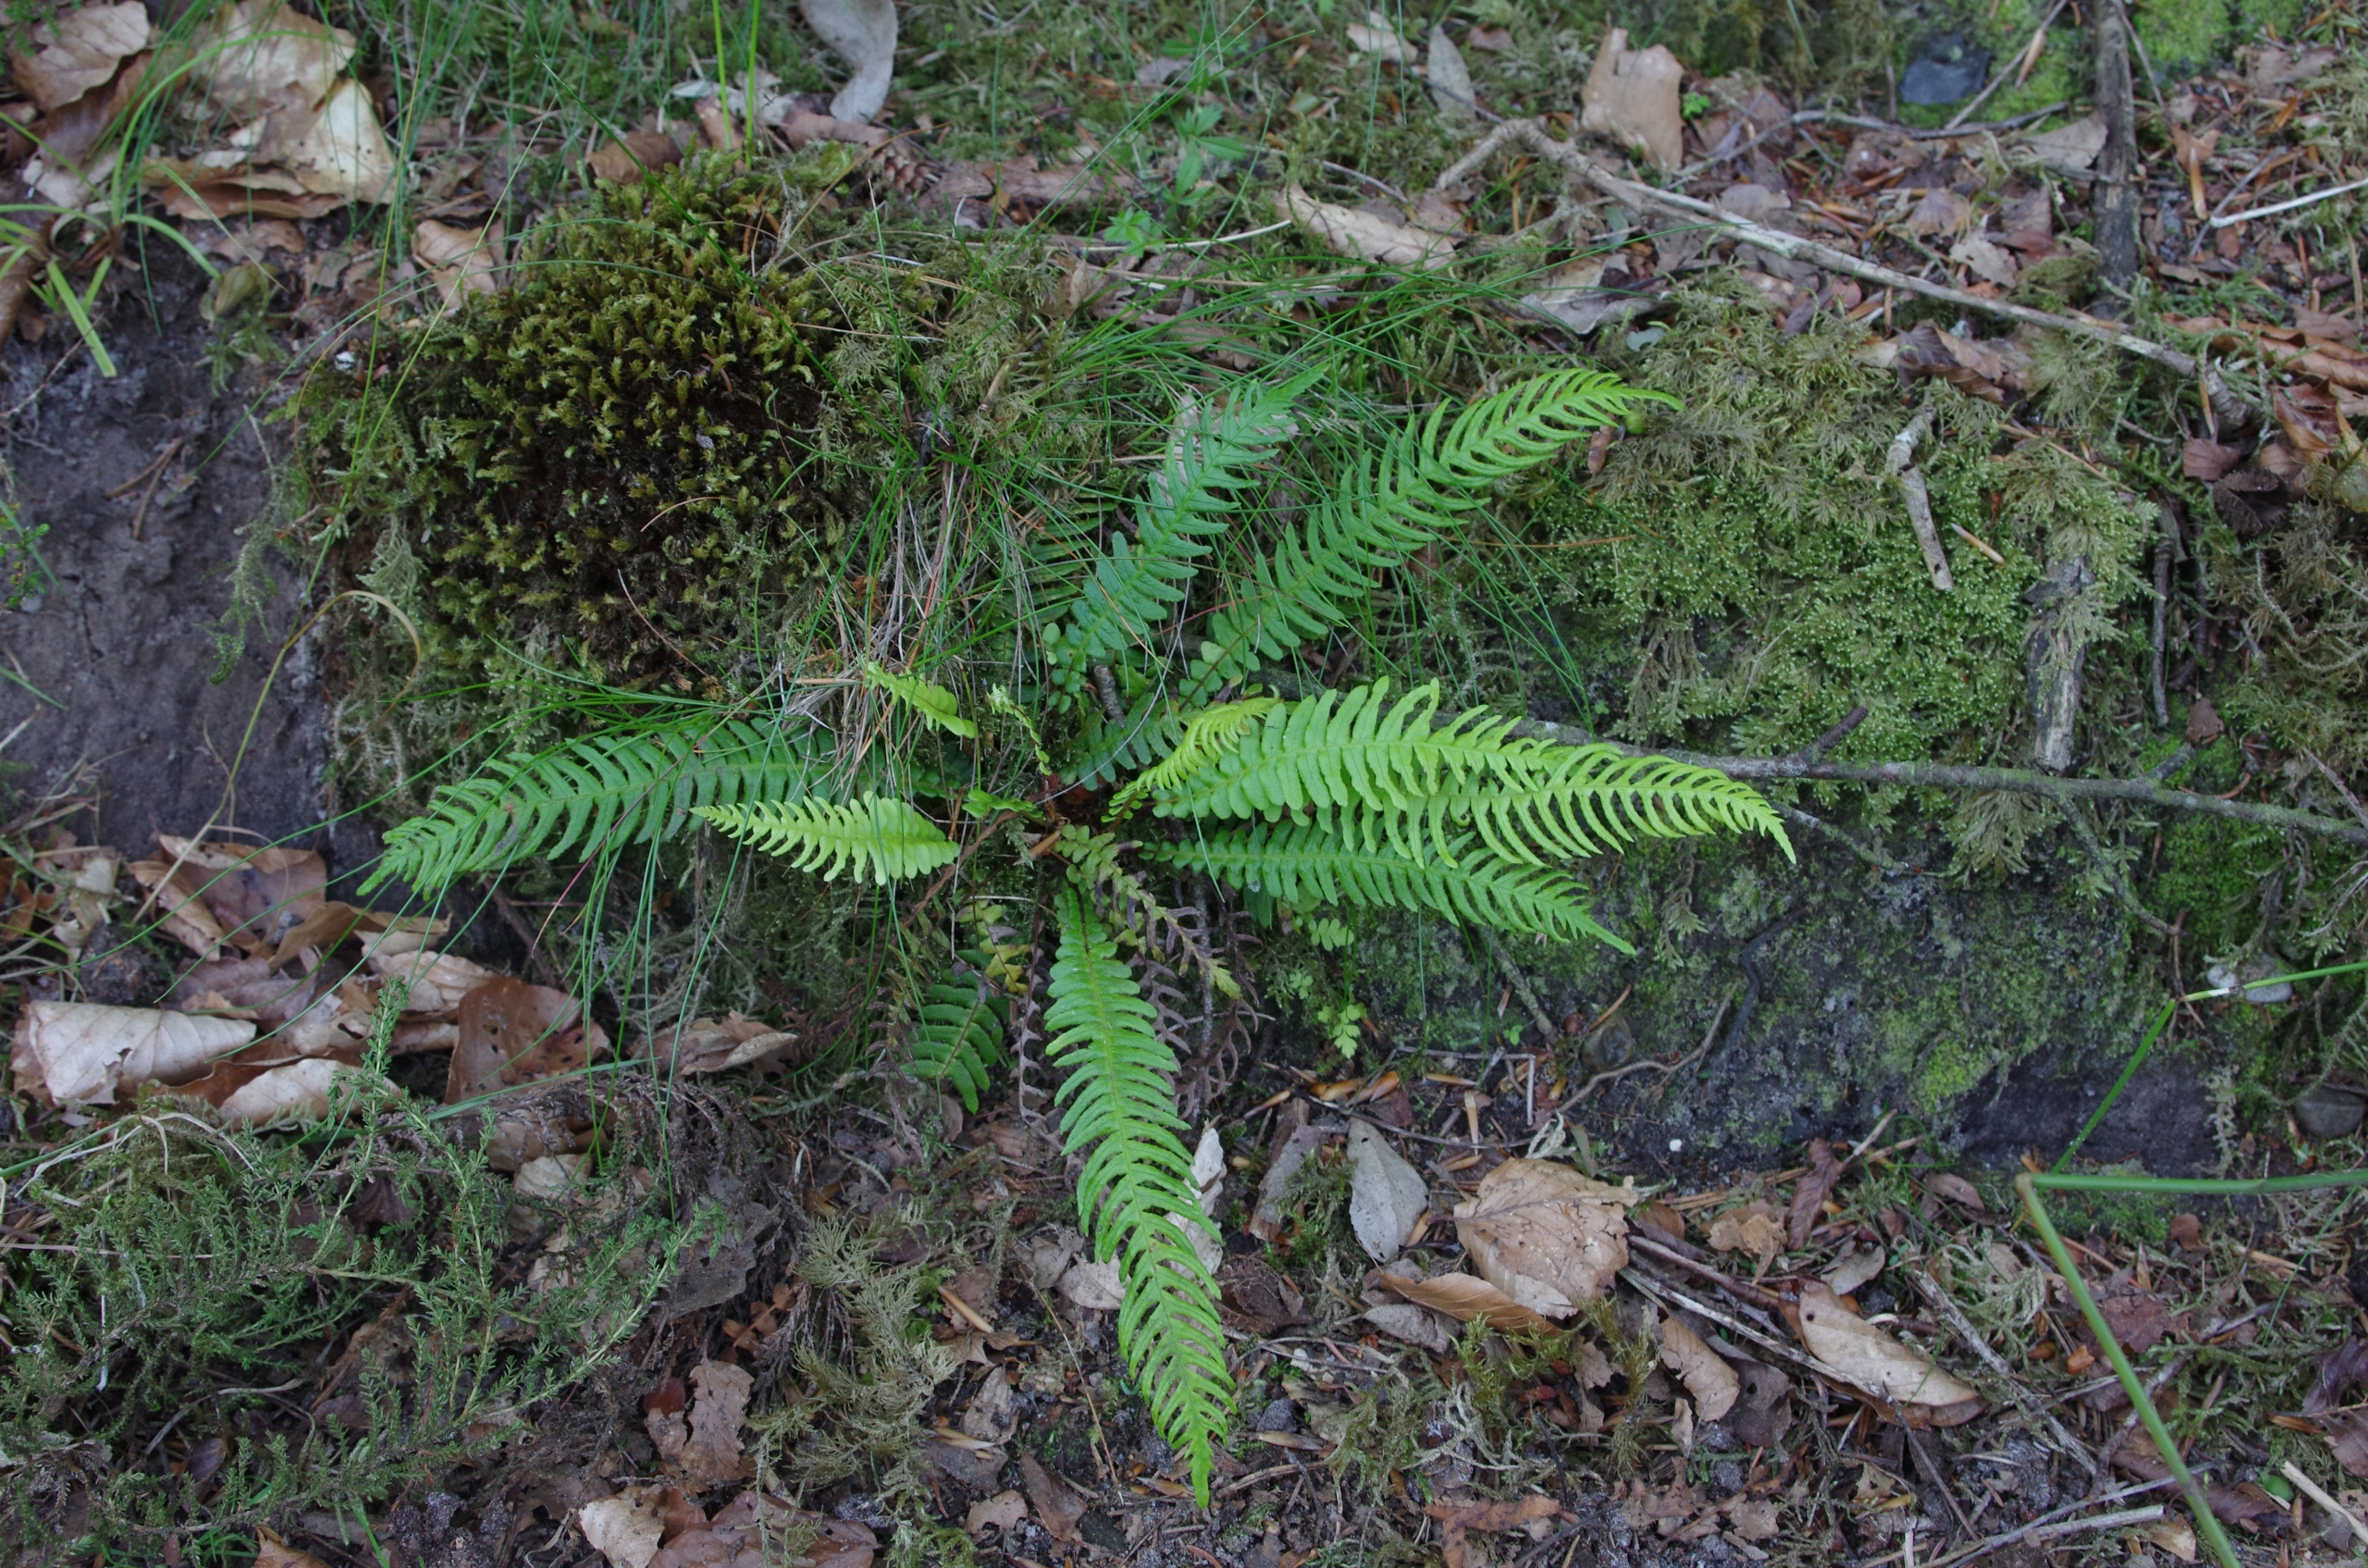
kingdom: Plantae
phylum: Tracheophyta
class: Polypodiopsida
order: Polypodiales
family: Blechnaceae
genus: Struthiopteris
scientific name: Struthiopteris spicant
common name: Kambregne
